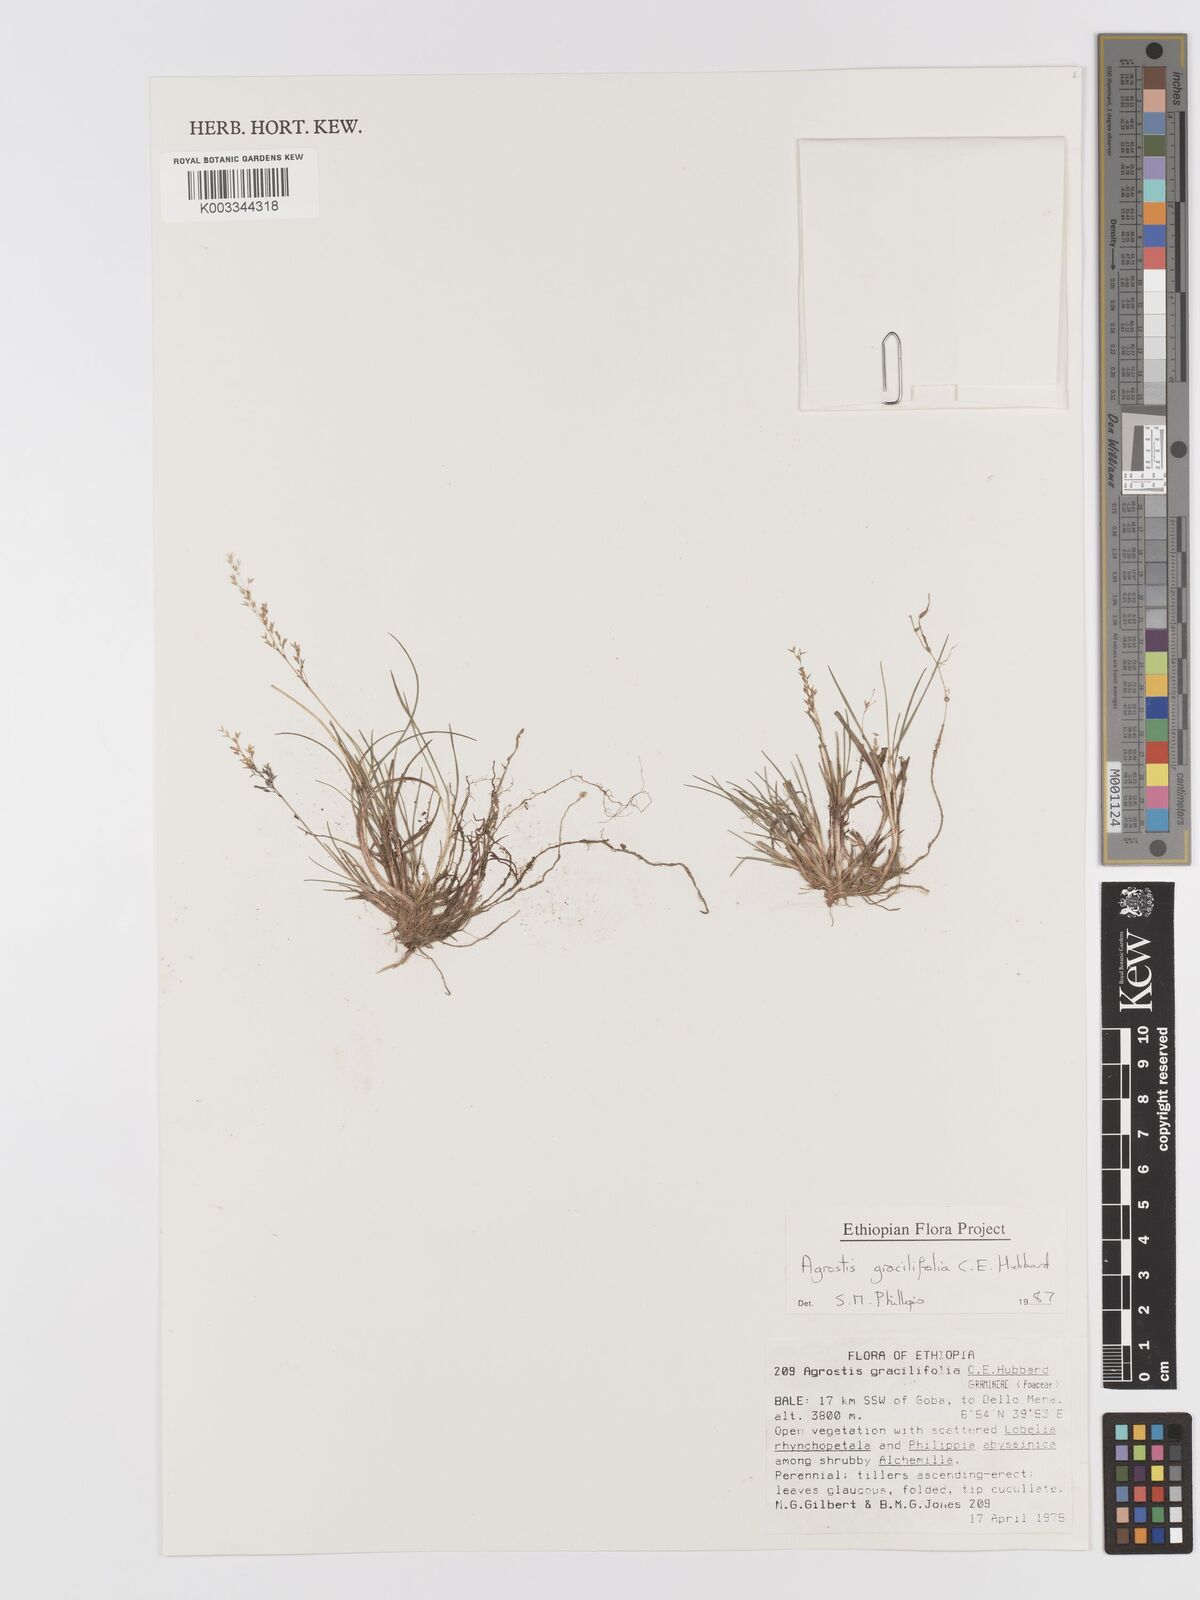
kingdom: Plantae
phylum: Tracheophyta
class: Liliopsida
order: Poales
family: Poaceae
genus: Agrostis
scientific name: Agrostis gracilifolia
